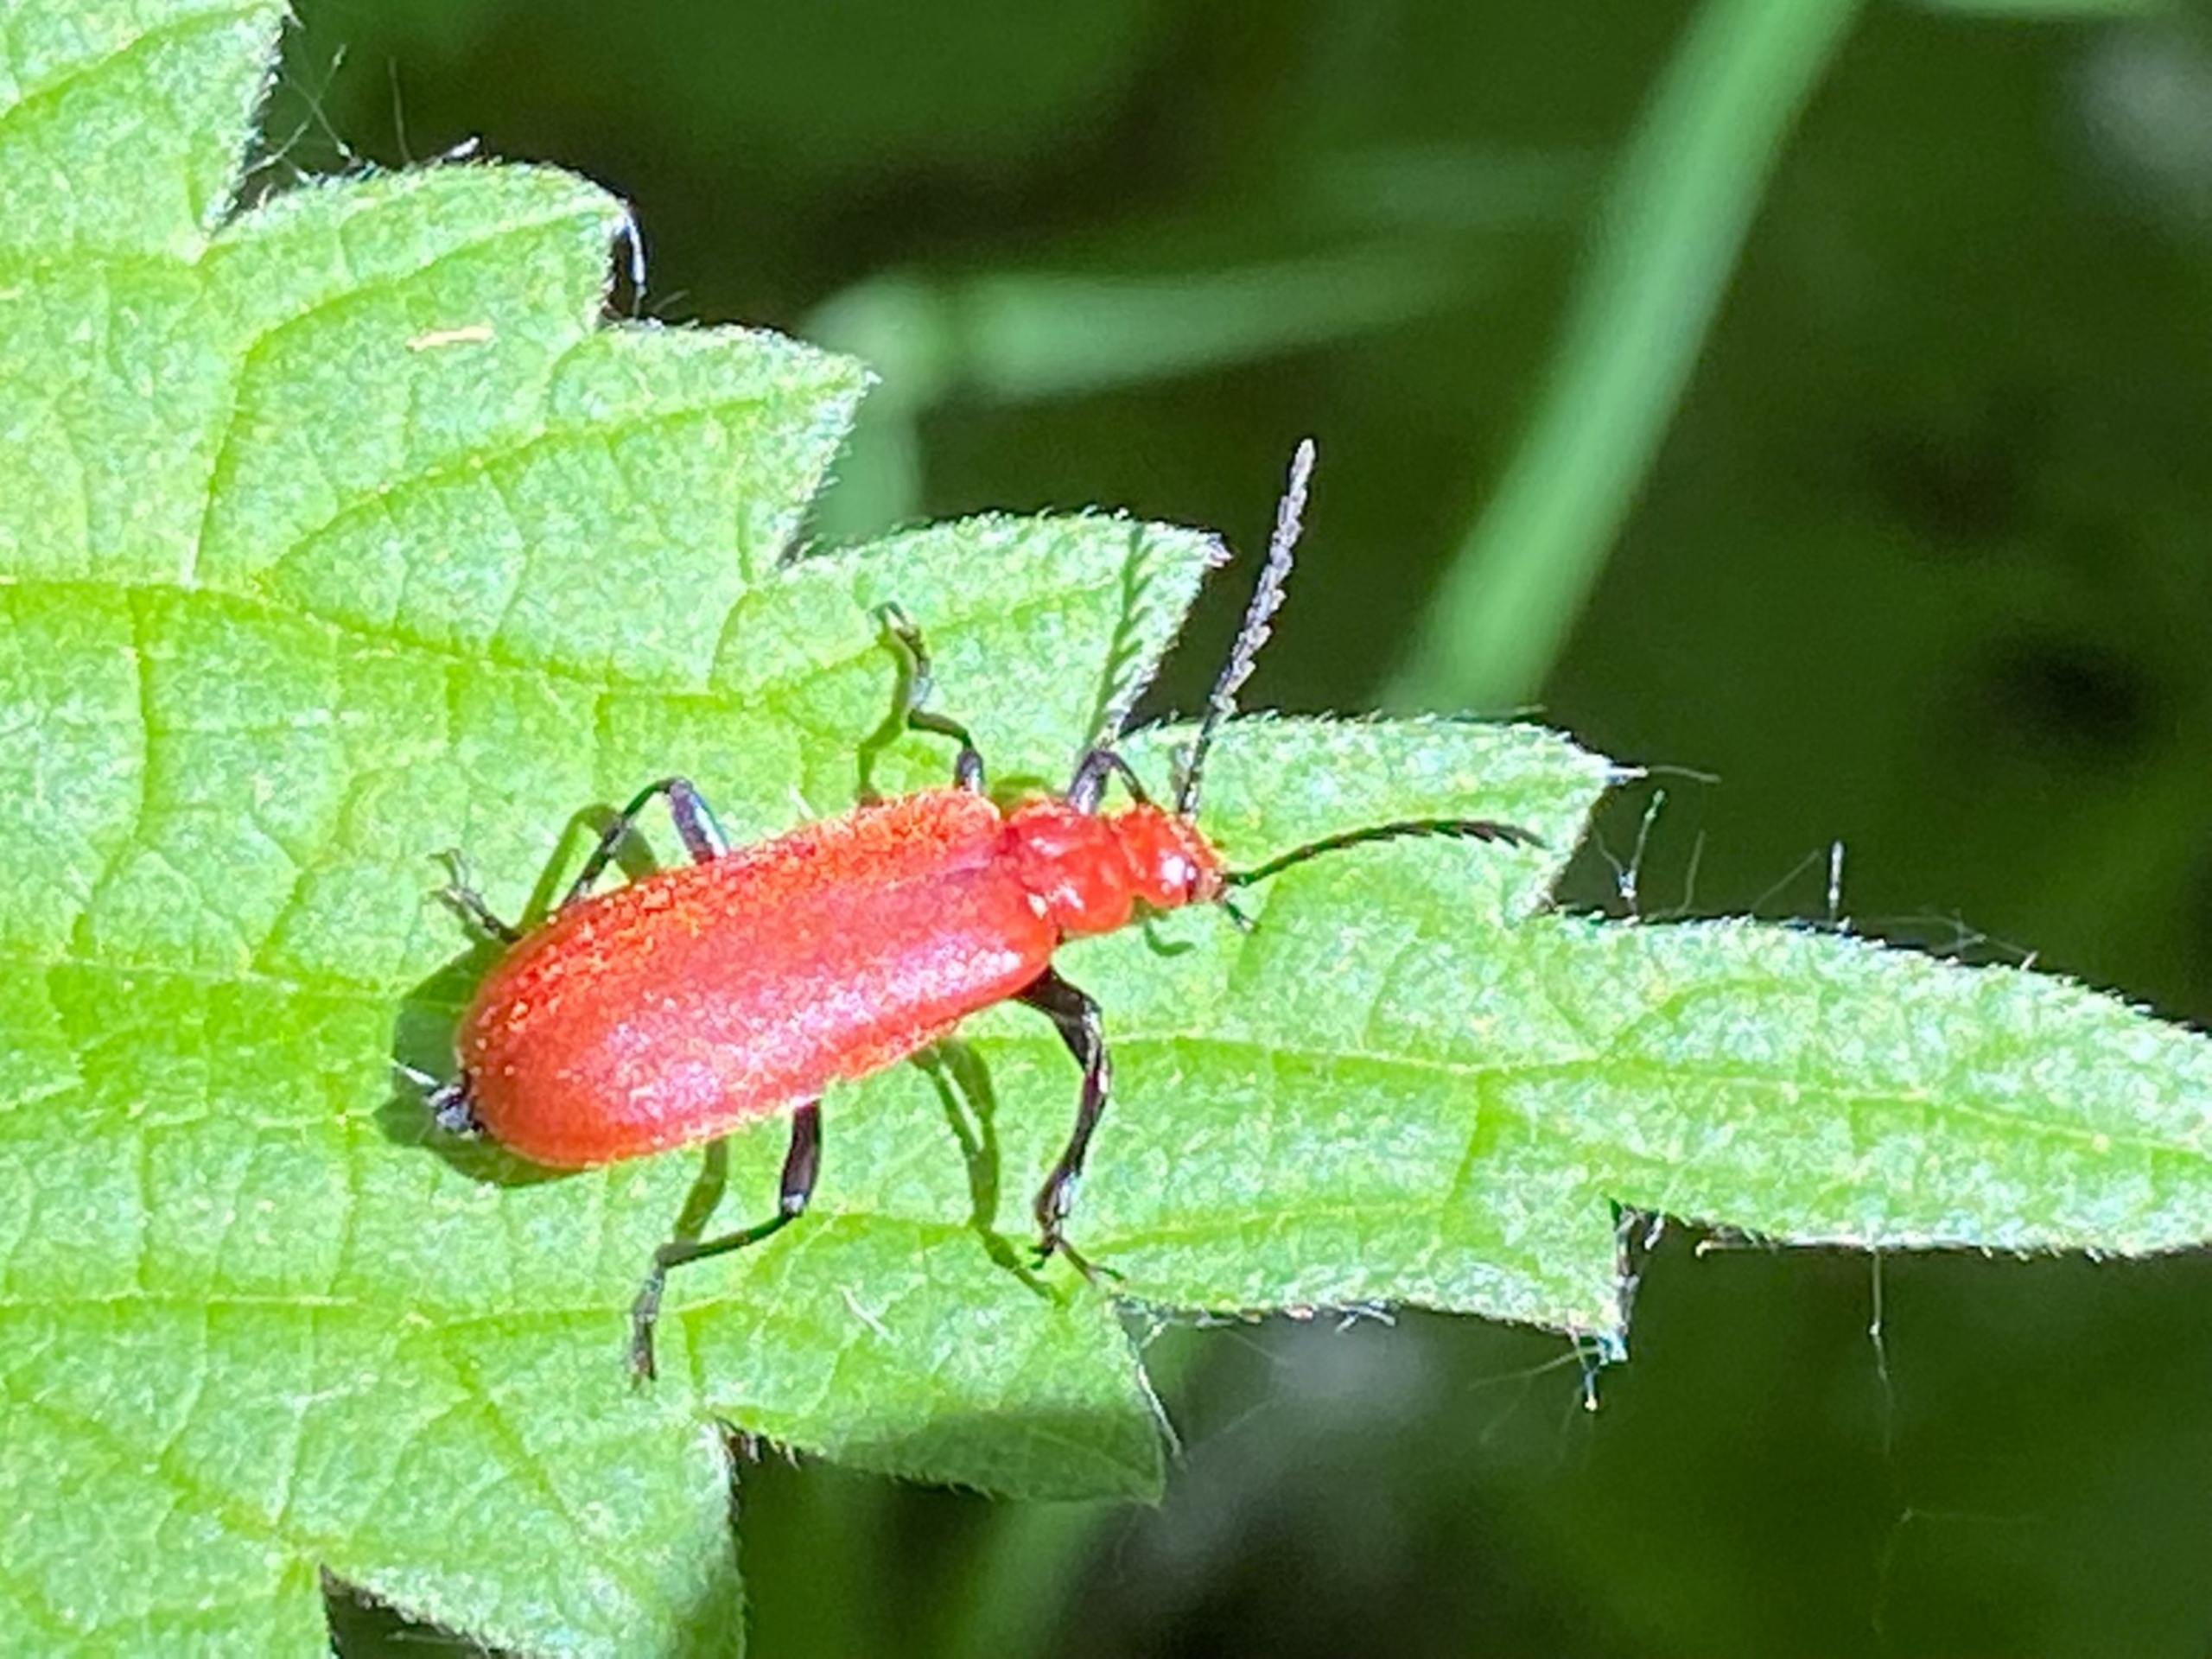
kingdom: Animalia
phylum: Arthropoda
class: Insecta
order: Coleoptera
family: Pyrochroidae
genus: Pyrochroa
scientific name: Pyrochroa serraticornis
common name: Rødhovedet kardinalbille
